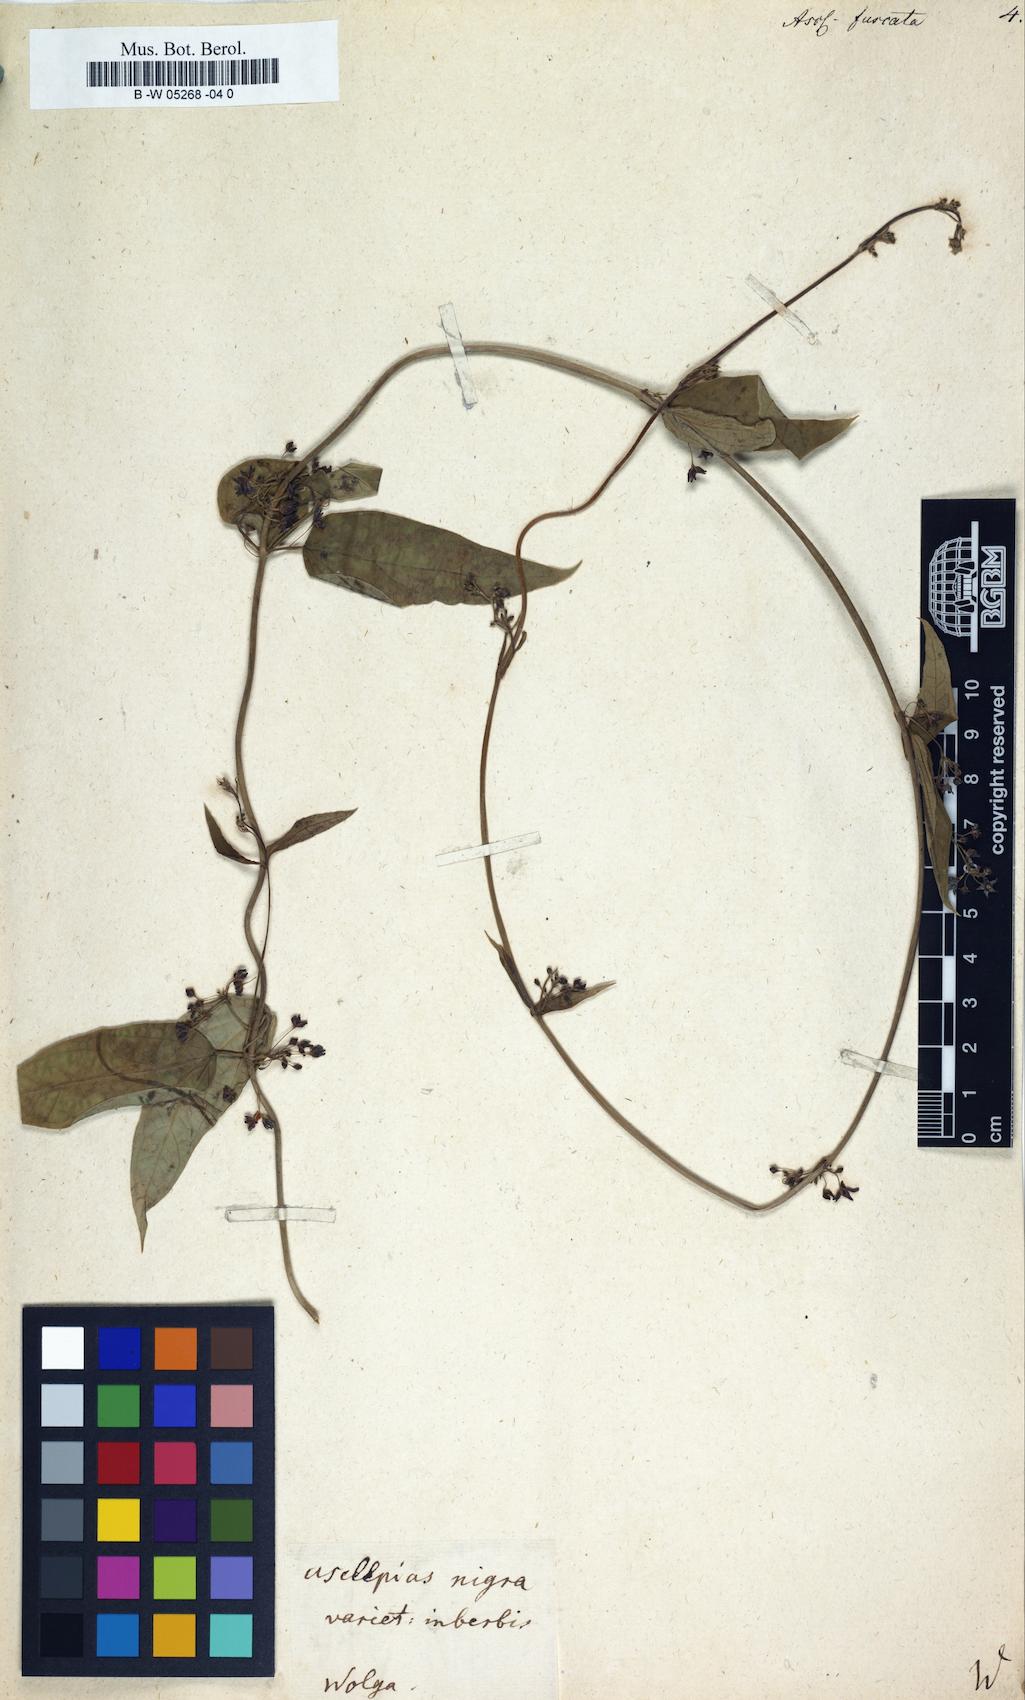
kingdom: Plantae
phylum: Tracheophyta
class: Magnoliopsida
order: Gentianales
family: Apocynaceae
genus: Vincetoxicum
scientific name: Vincetoxicum fuscatum
